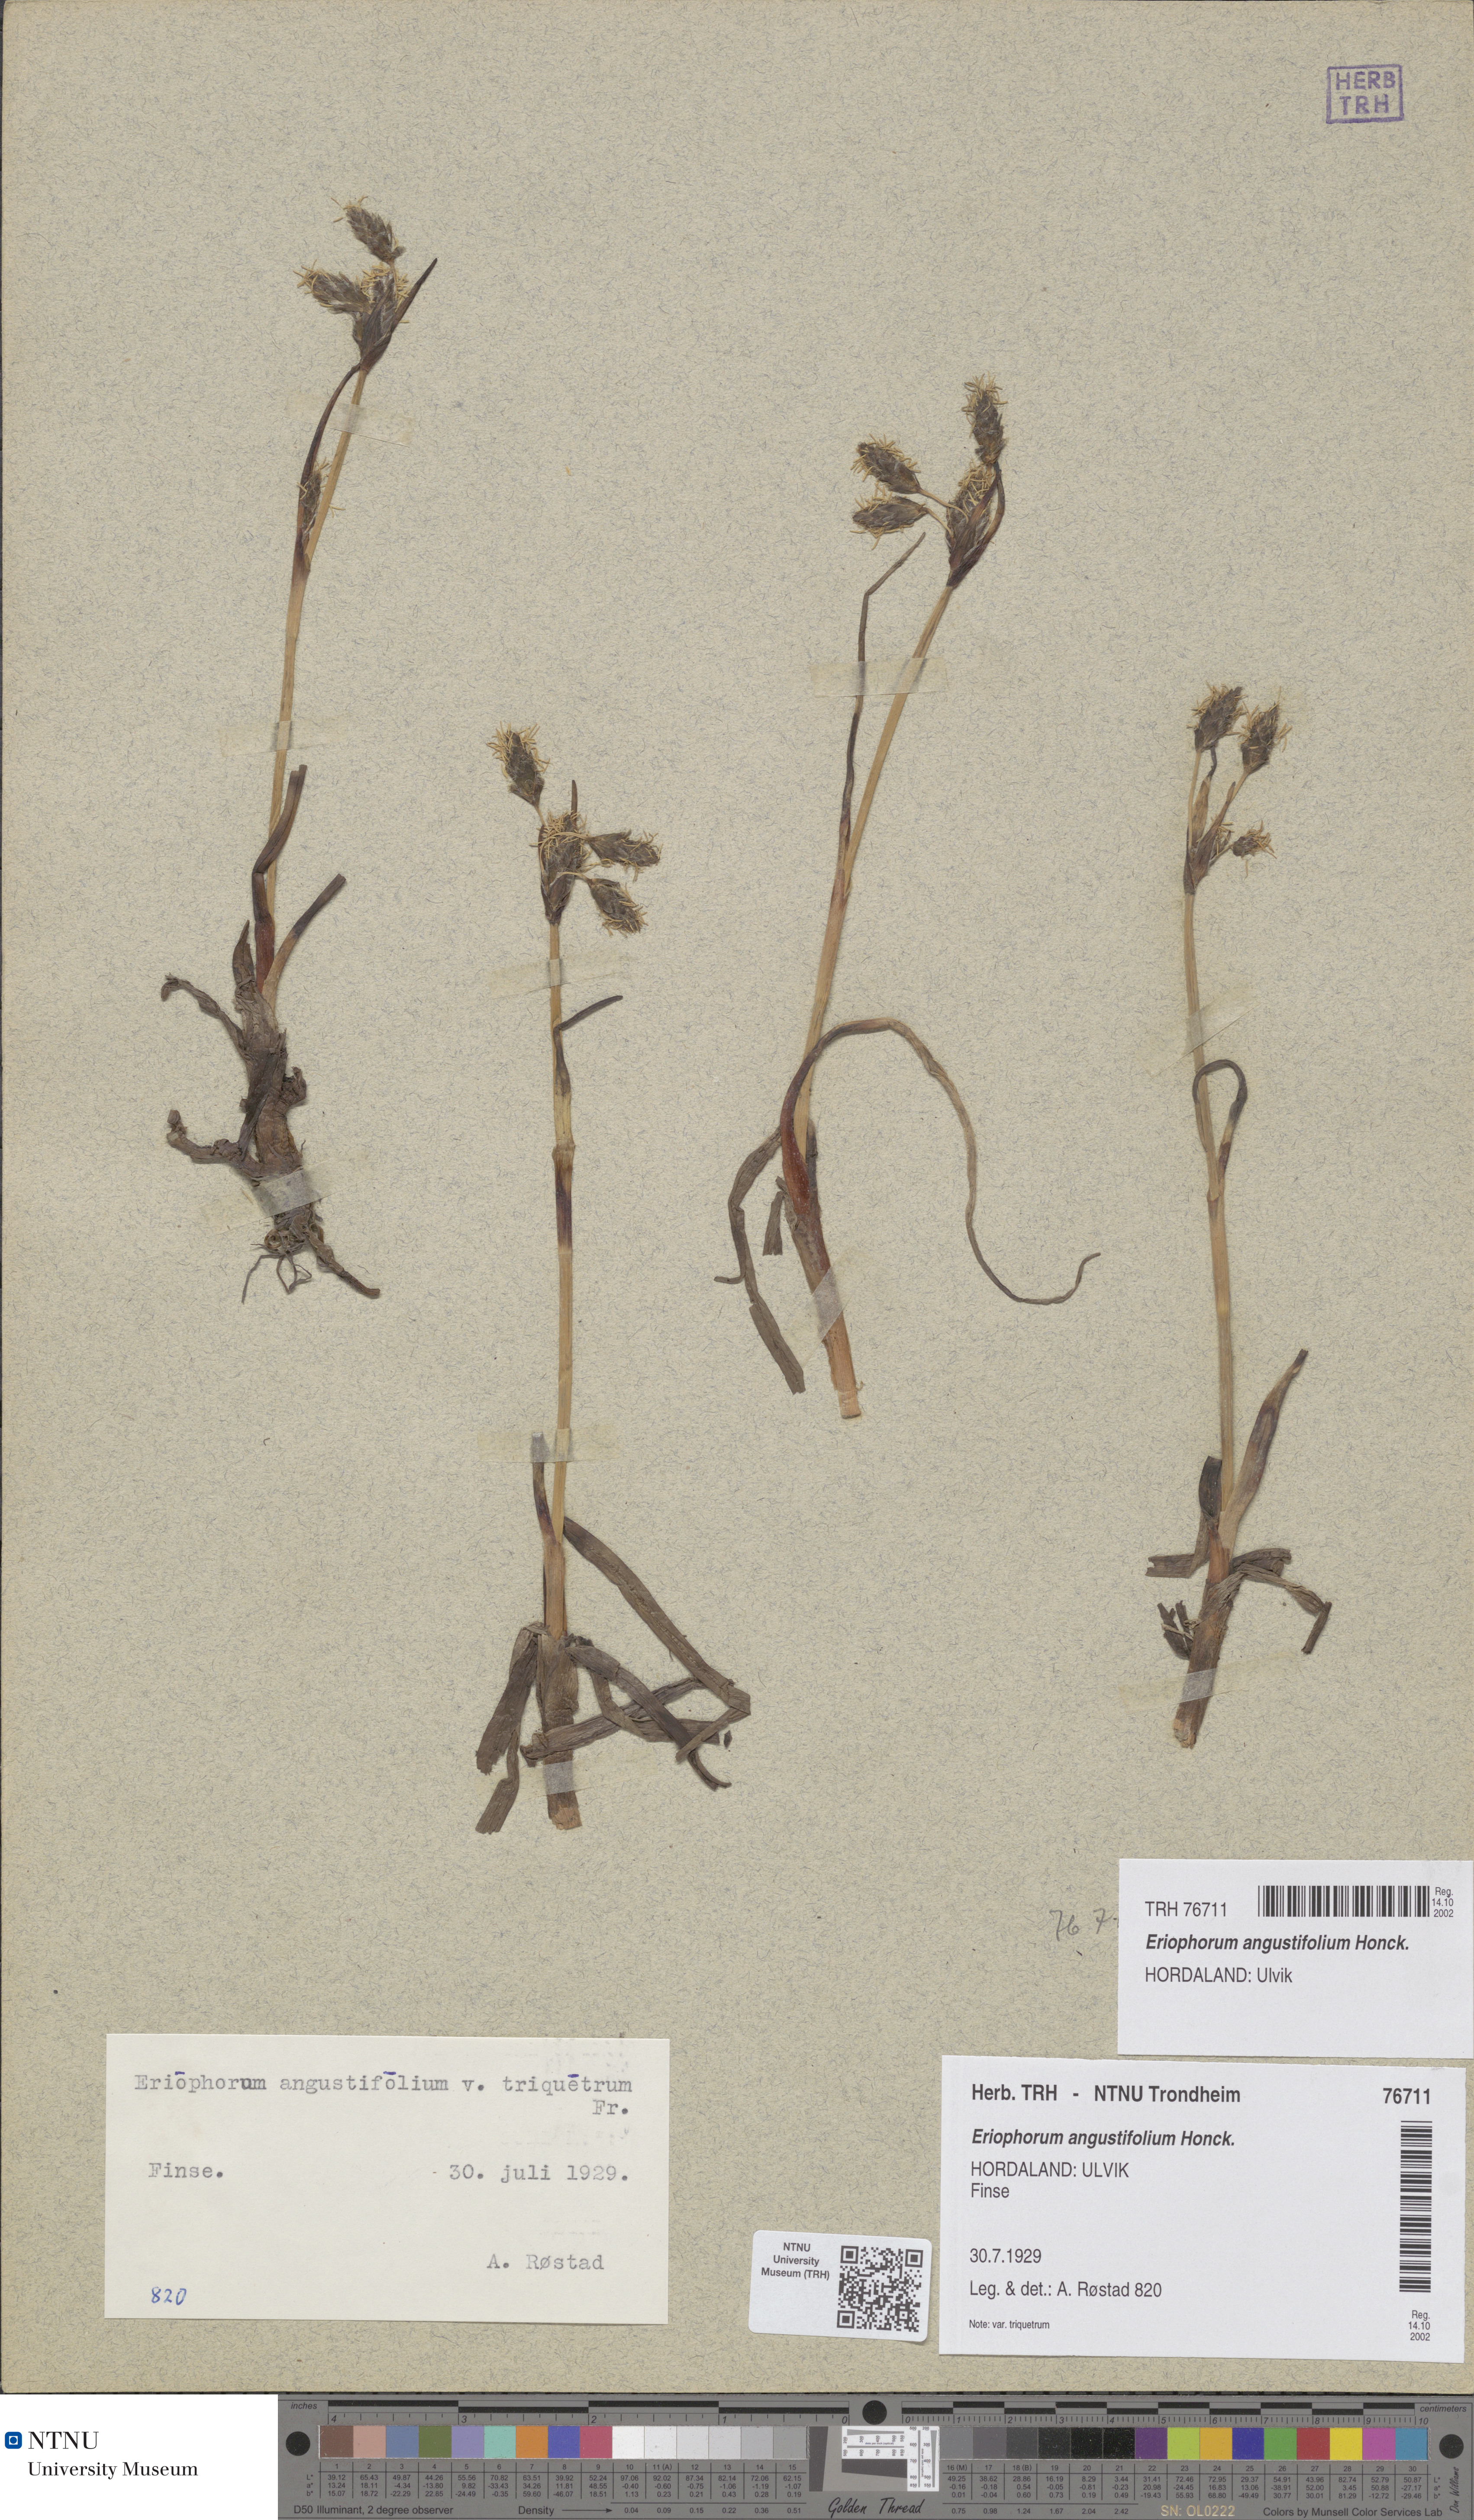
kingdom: Plantae
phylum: Tracheophyta
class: Liliopsida
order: Poales
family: Cyperaceae
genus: Eriophorum
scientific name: Eriophorum angustifolium
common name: Common cottongrass
